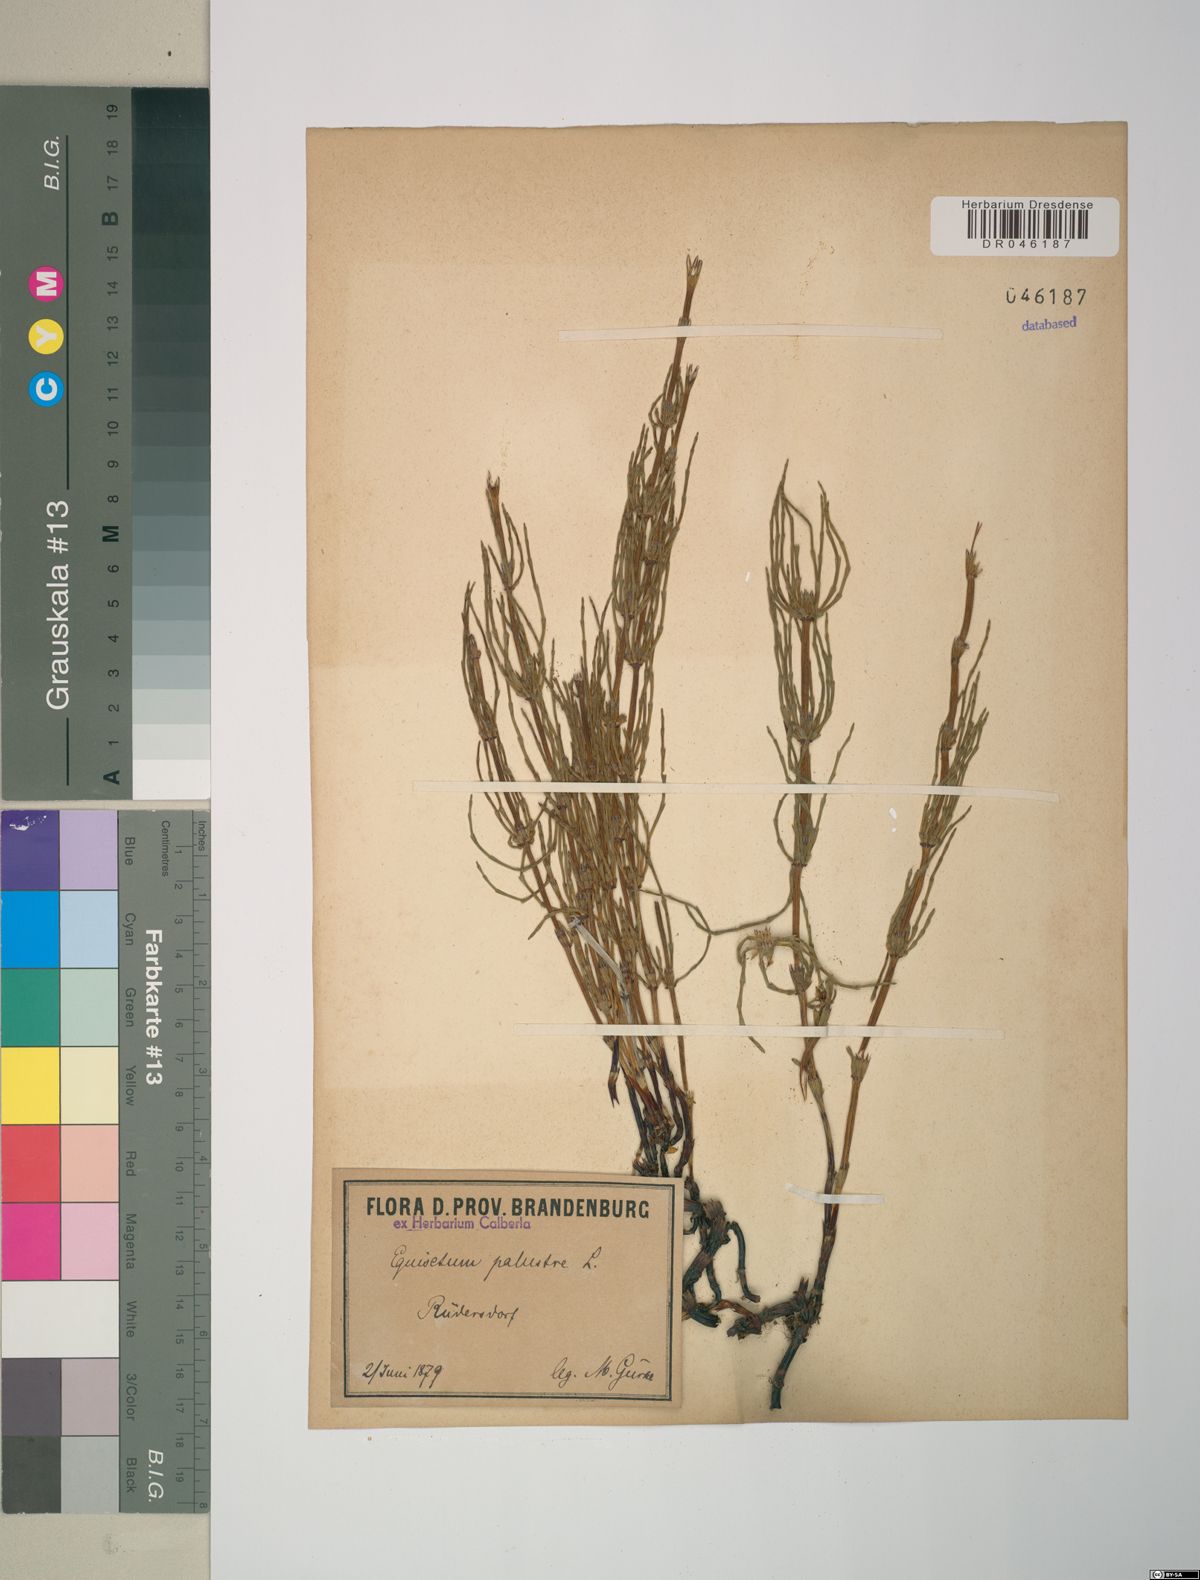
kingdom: Plantae
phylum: Tracheophyta
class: Polypodiopsida
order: Equisetales
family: Equisetaceae
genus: Equisetum
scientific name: Equisetum palustre
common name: Marsh horsetail
